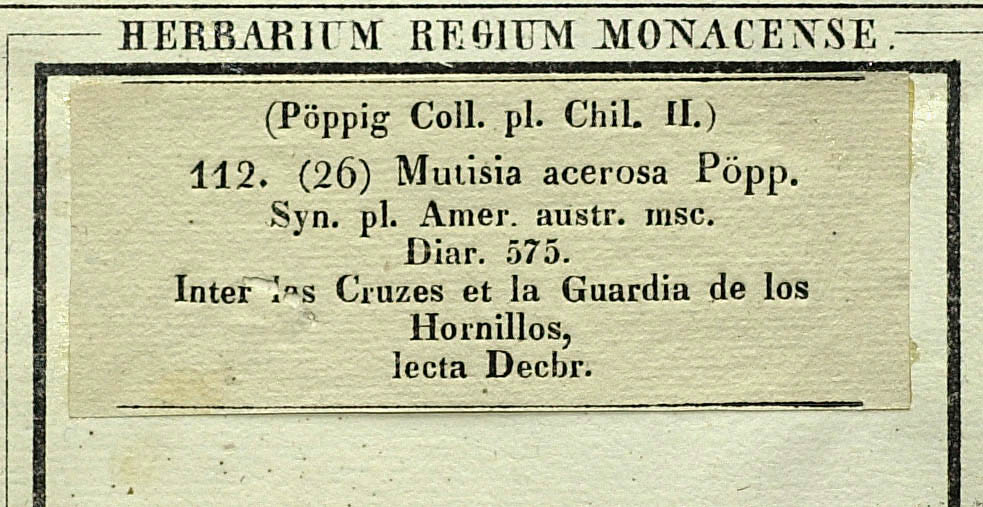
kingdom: Plantae
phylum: Tracheophyta
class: Magnoliopsida
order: Asterales
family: Asteraceae
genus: Mutisia
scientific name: Mutisia acerosa
